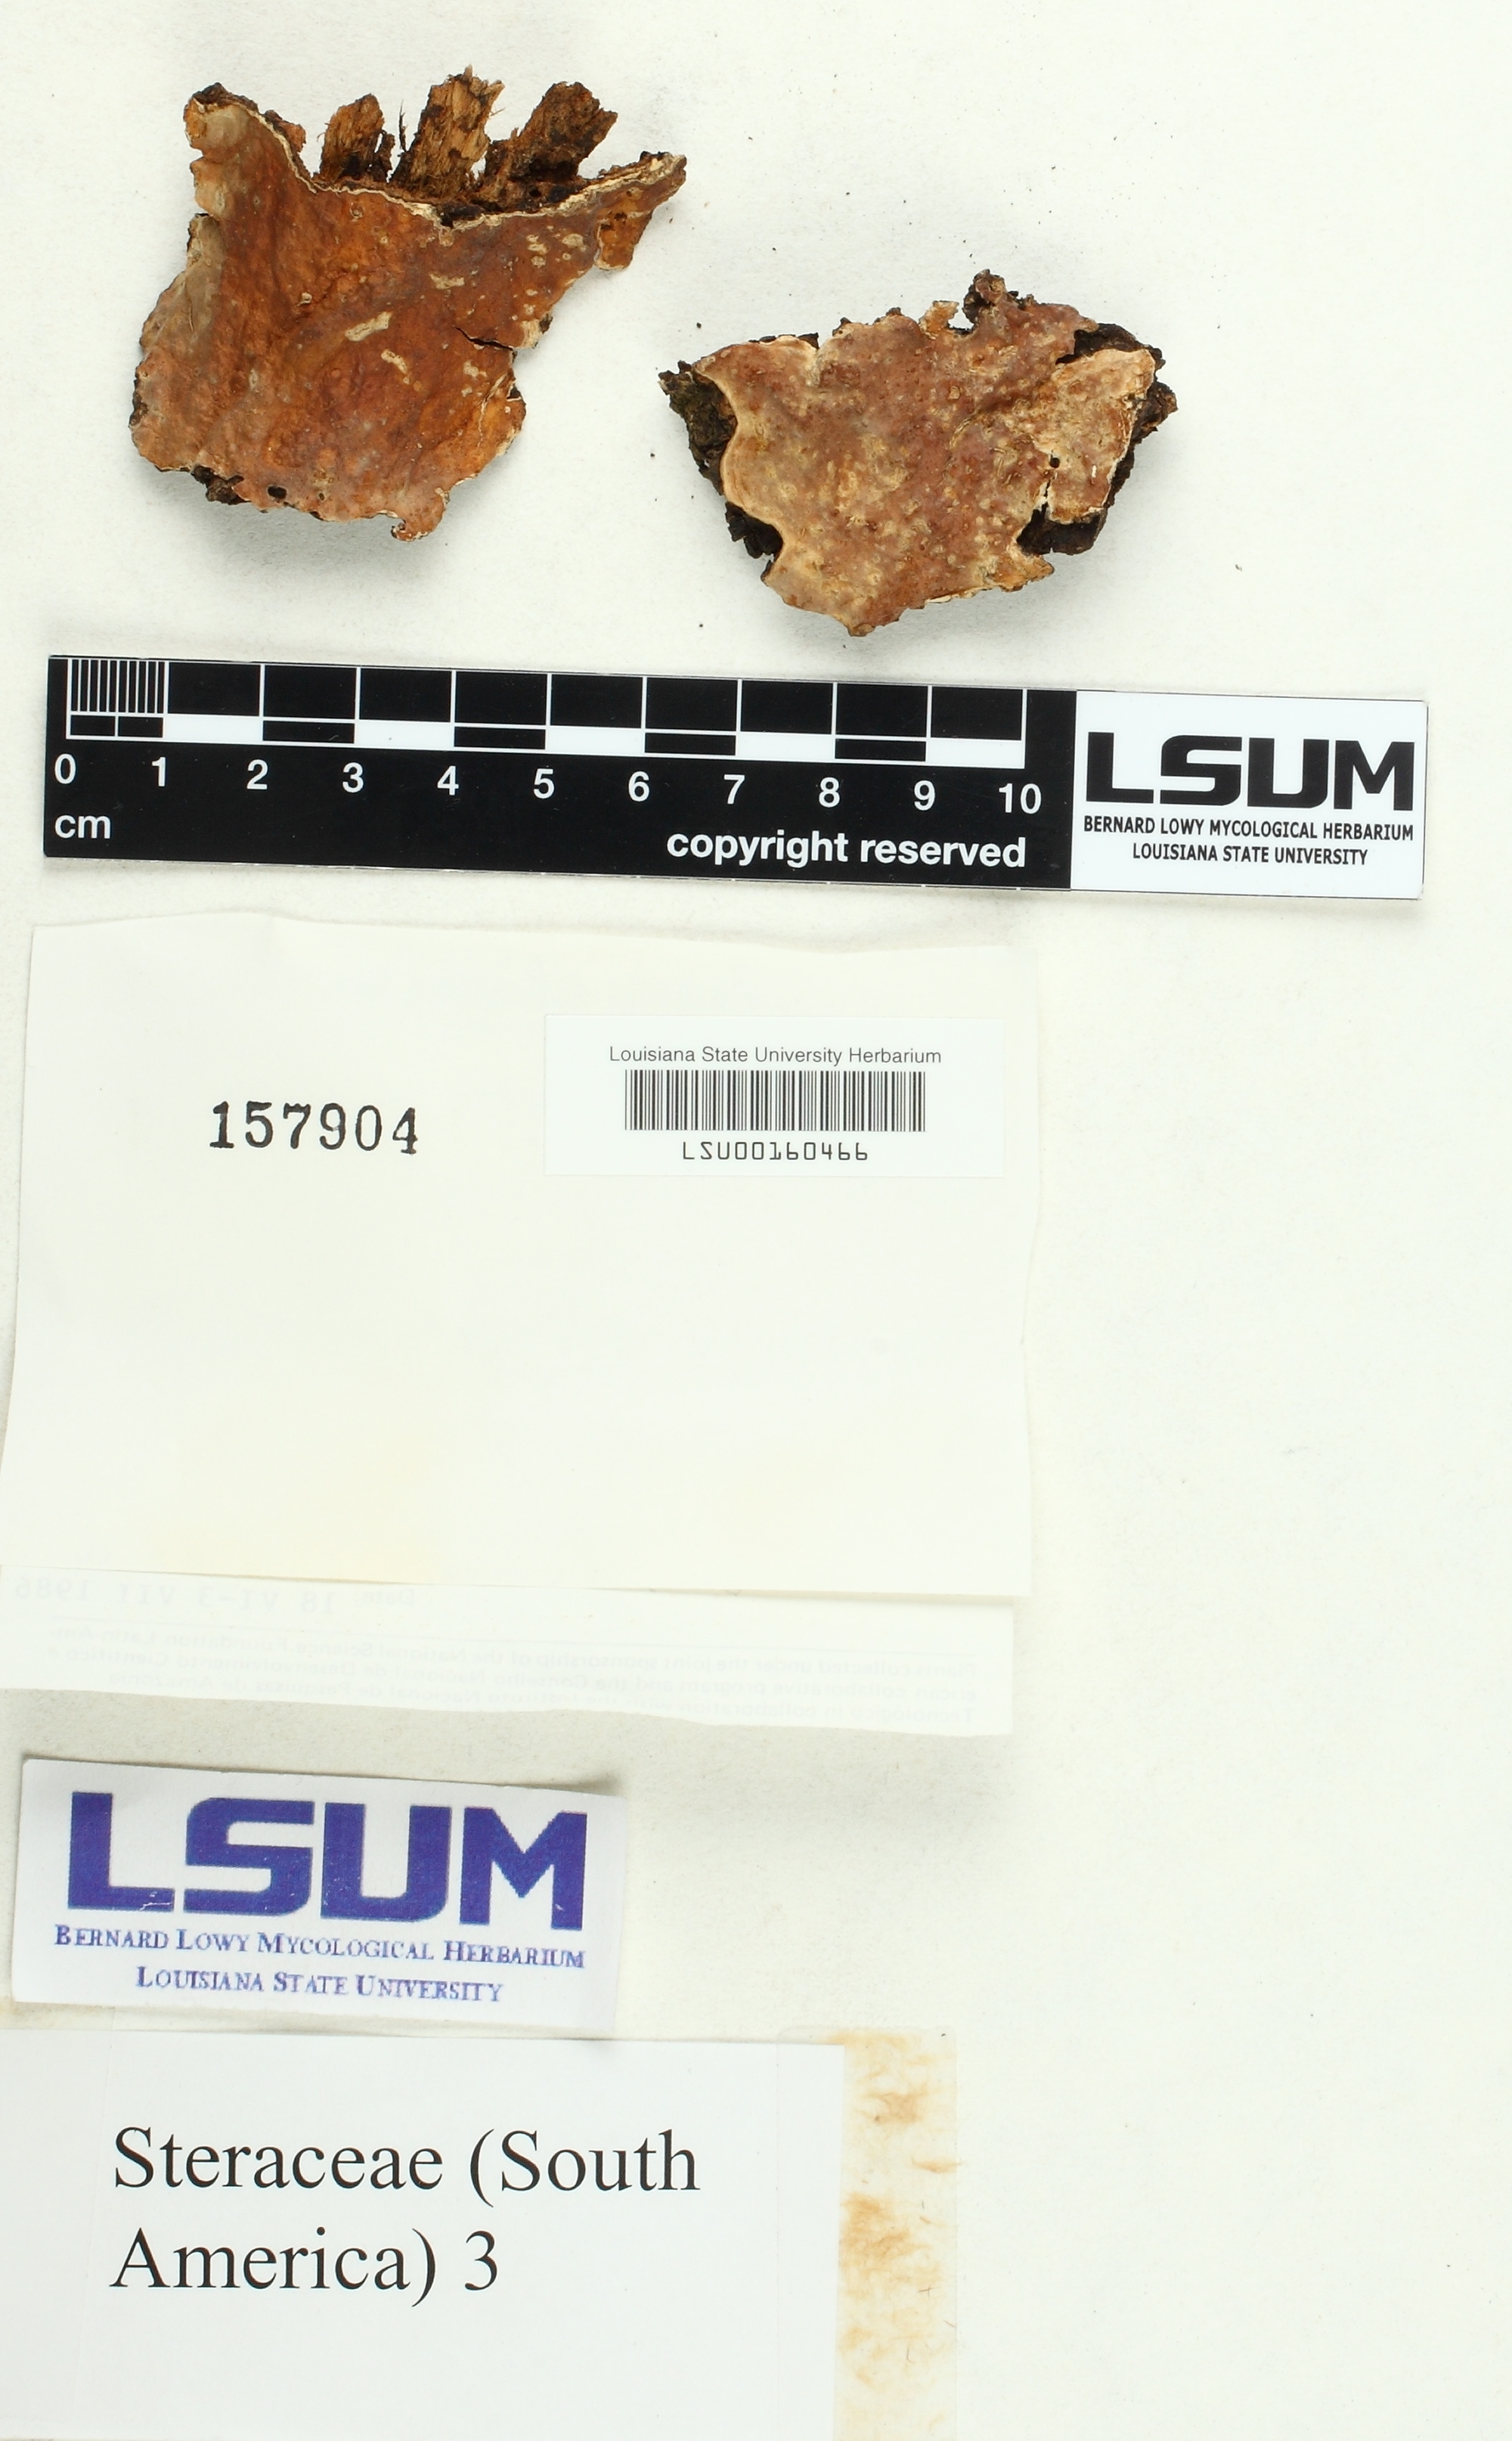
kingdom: Fungi
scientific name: Fungi
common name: Fungi
